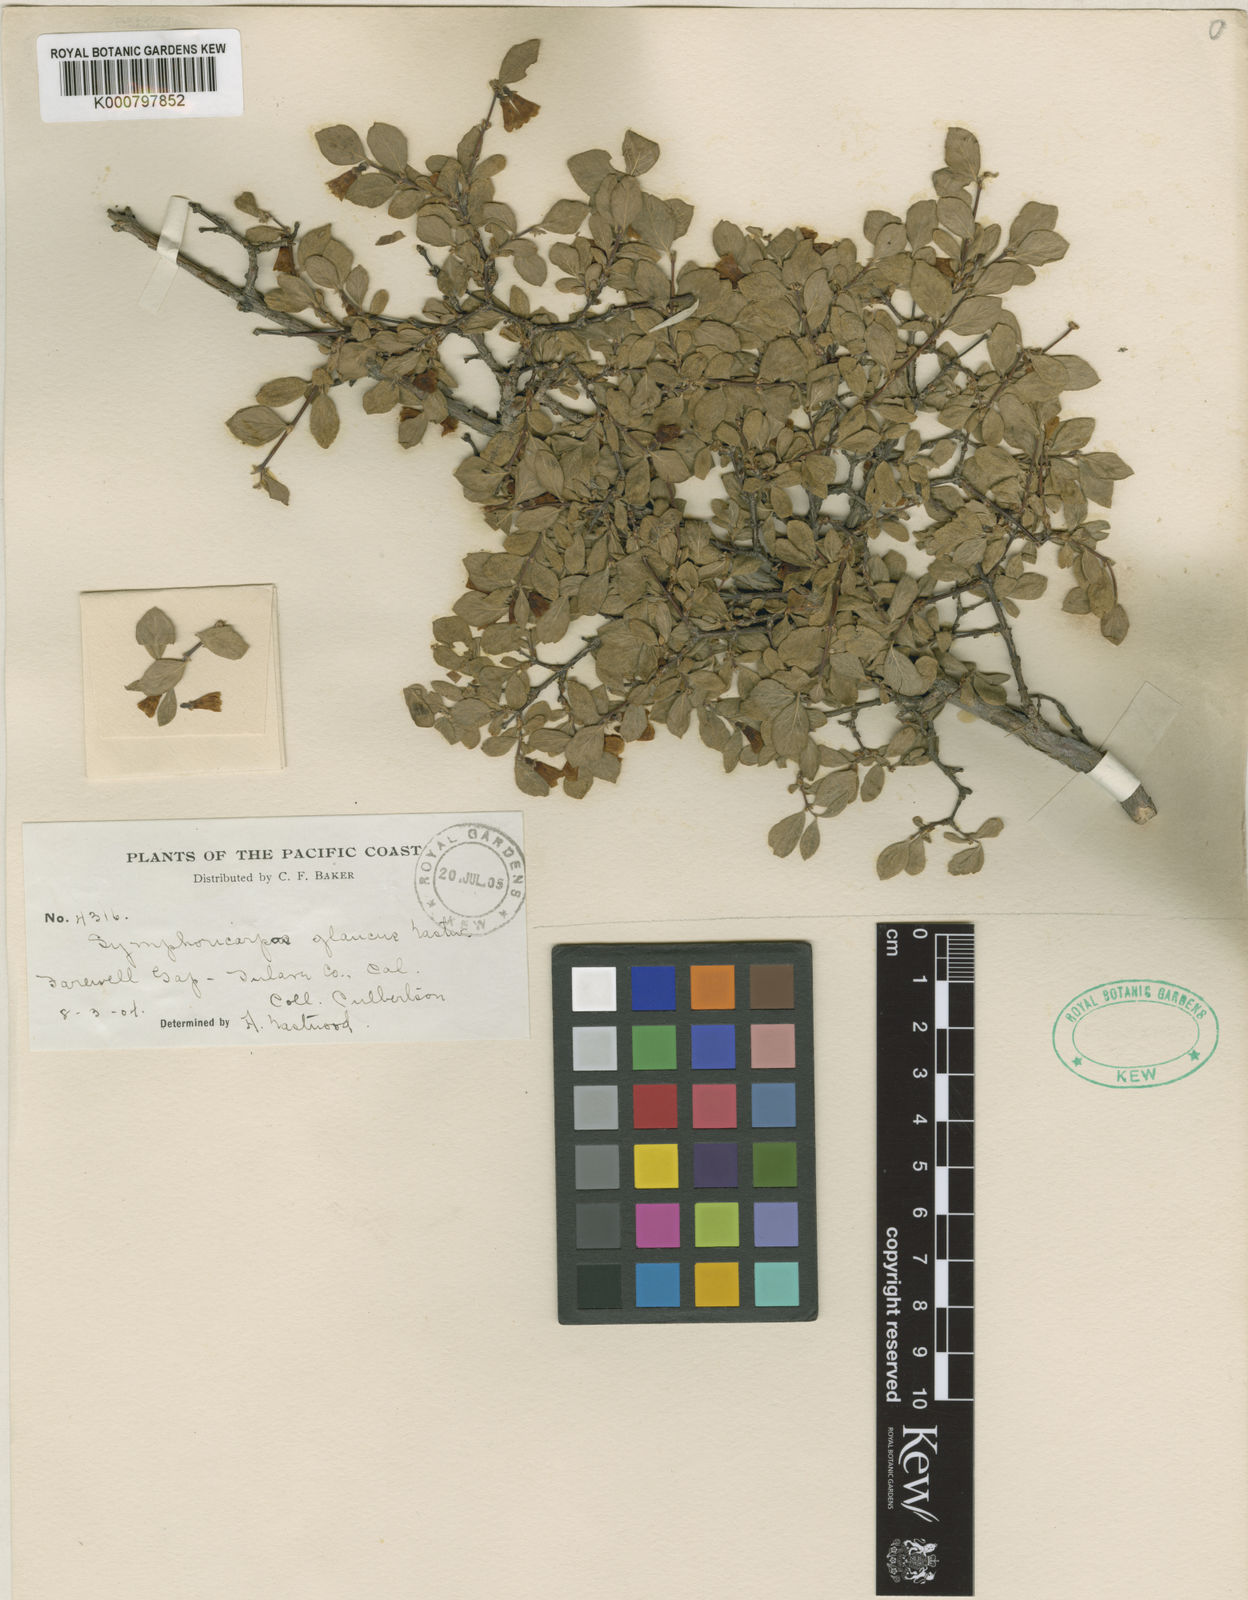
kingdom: Plantae
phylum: Tracheophyta
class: Magnoliopsida
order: Dipsacales
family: Caprifoliaceae
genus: Symphoricarpos
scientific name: Symphoricarpos parishii
